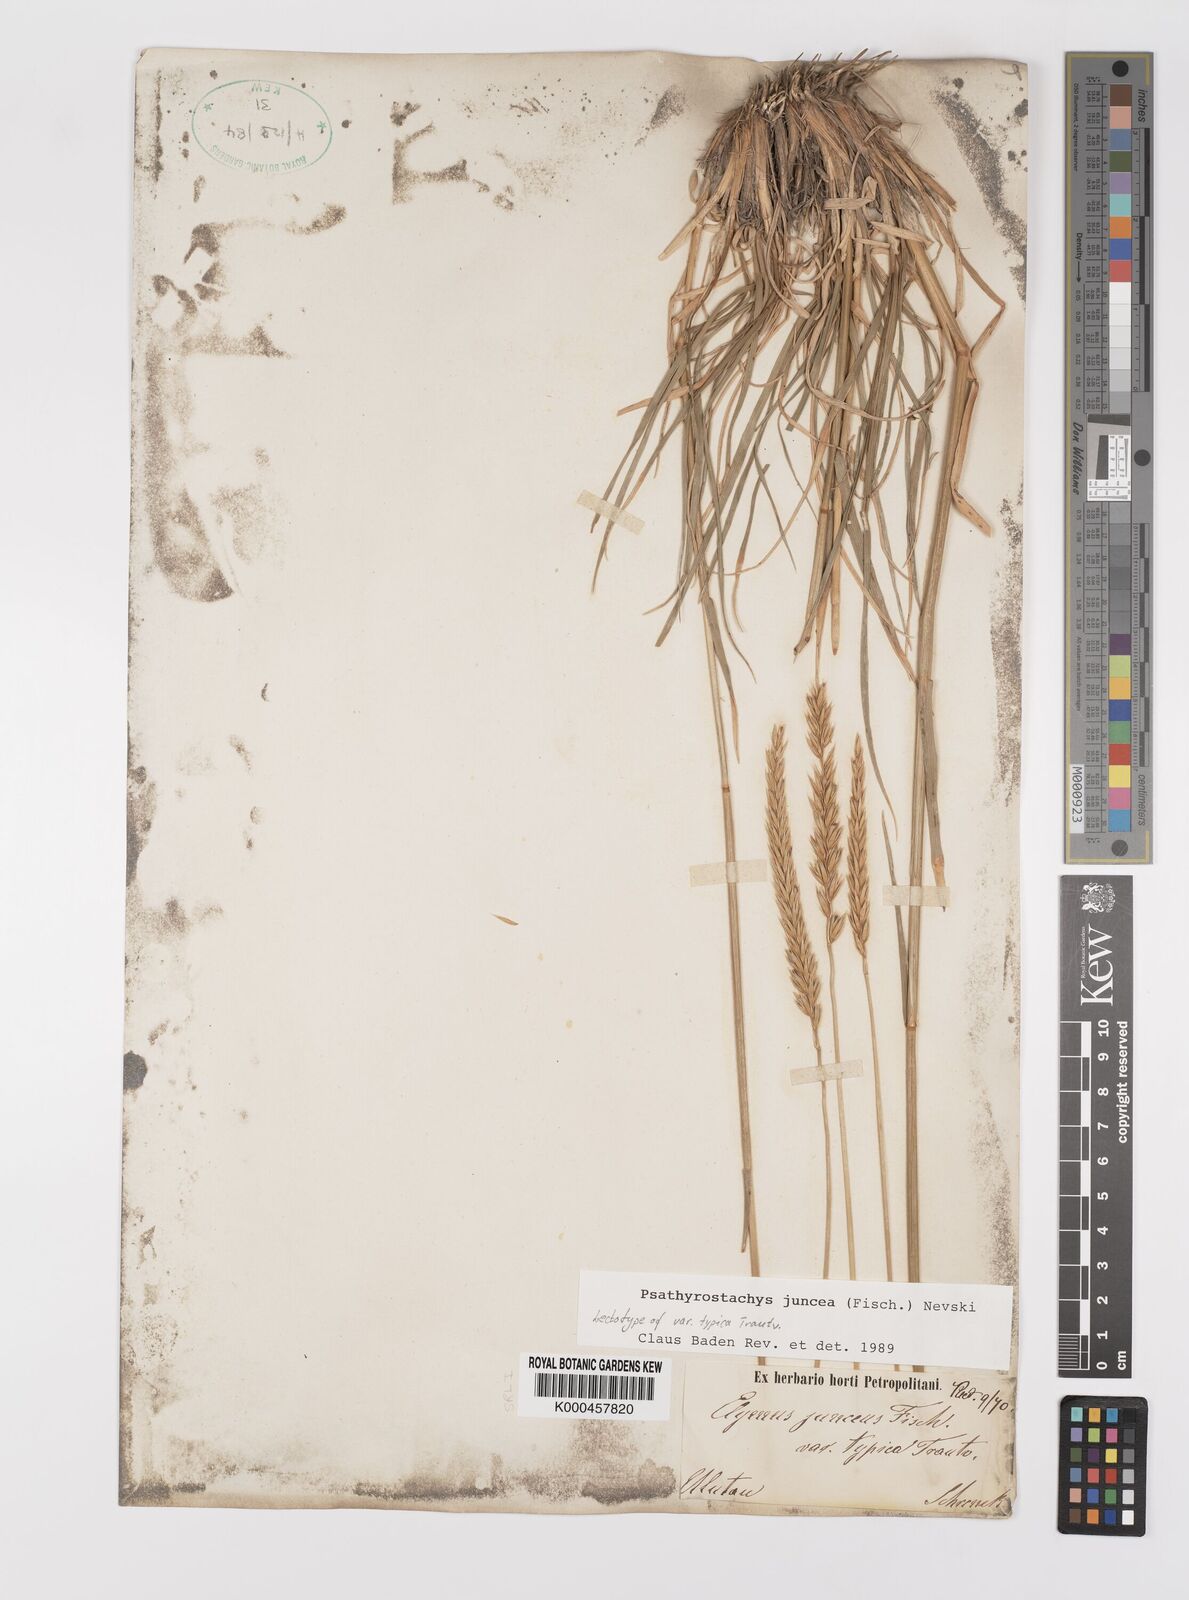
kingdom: Plantae
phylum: Tracheophyta
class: Liliopsida
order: Poales
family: Poaceae
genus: Psathyrostachys
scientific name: Psathyrostachys juncea
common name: Russian wildrye
